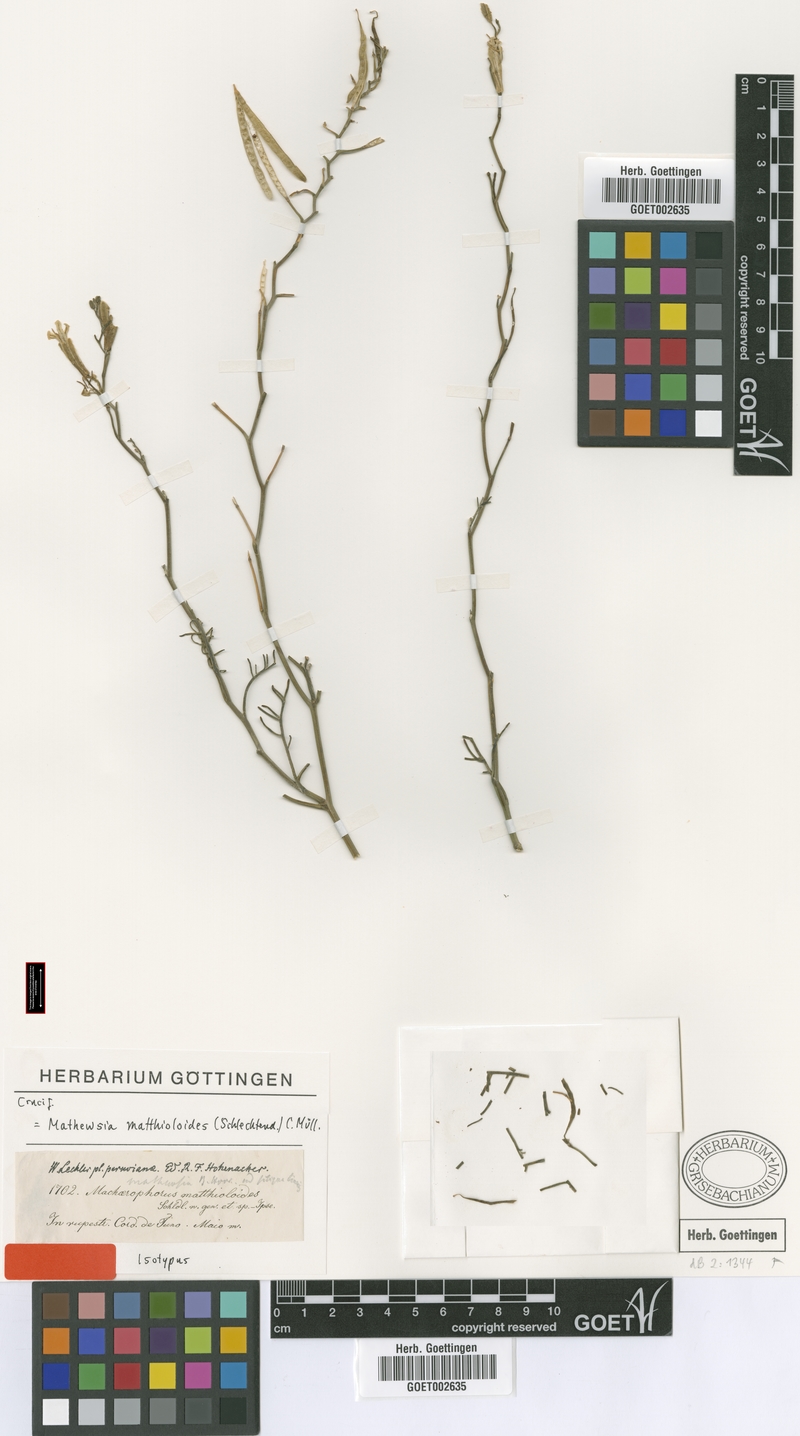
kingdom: Plantae
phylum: Tracheophyta
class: Magnoliopsida
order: Brassicales
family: Brassicaceae
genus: Machaerophorus
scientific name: Machaerophorus matthioloides
